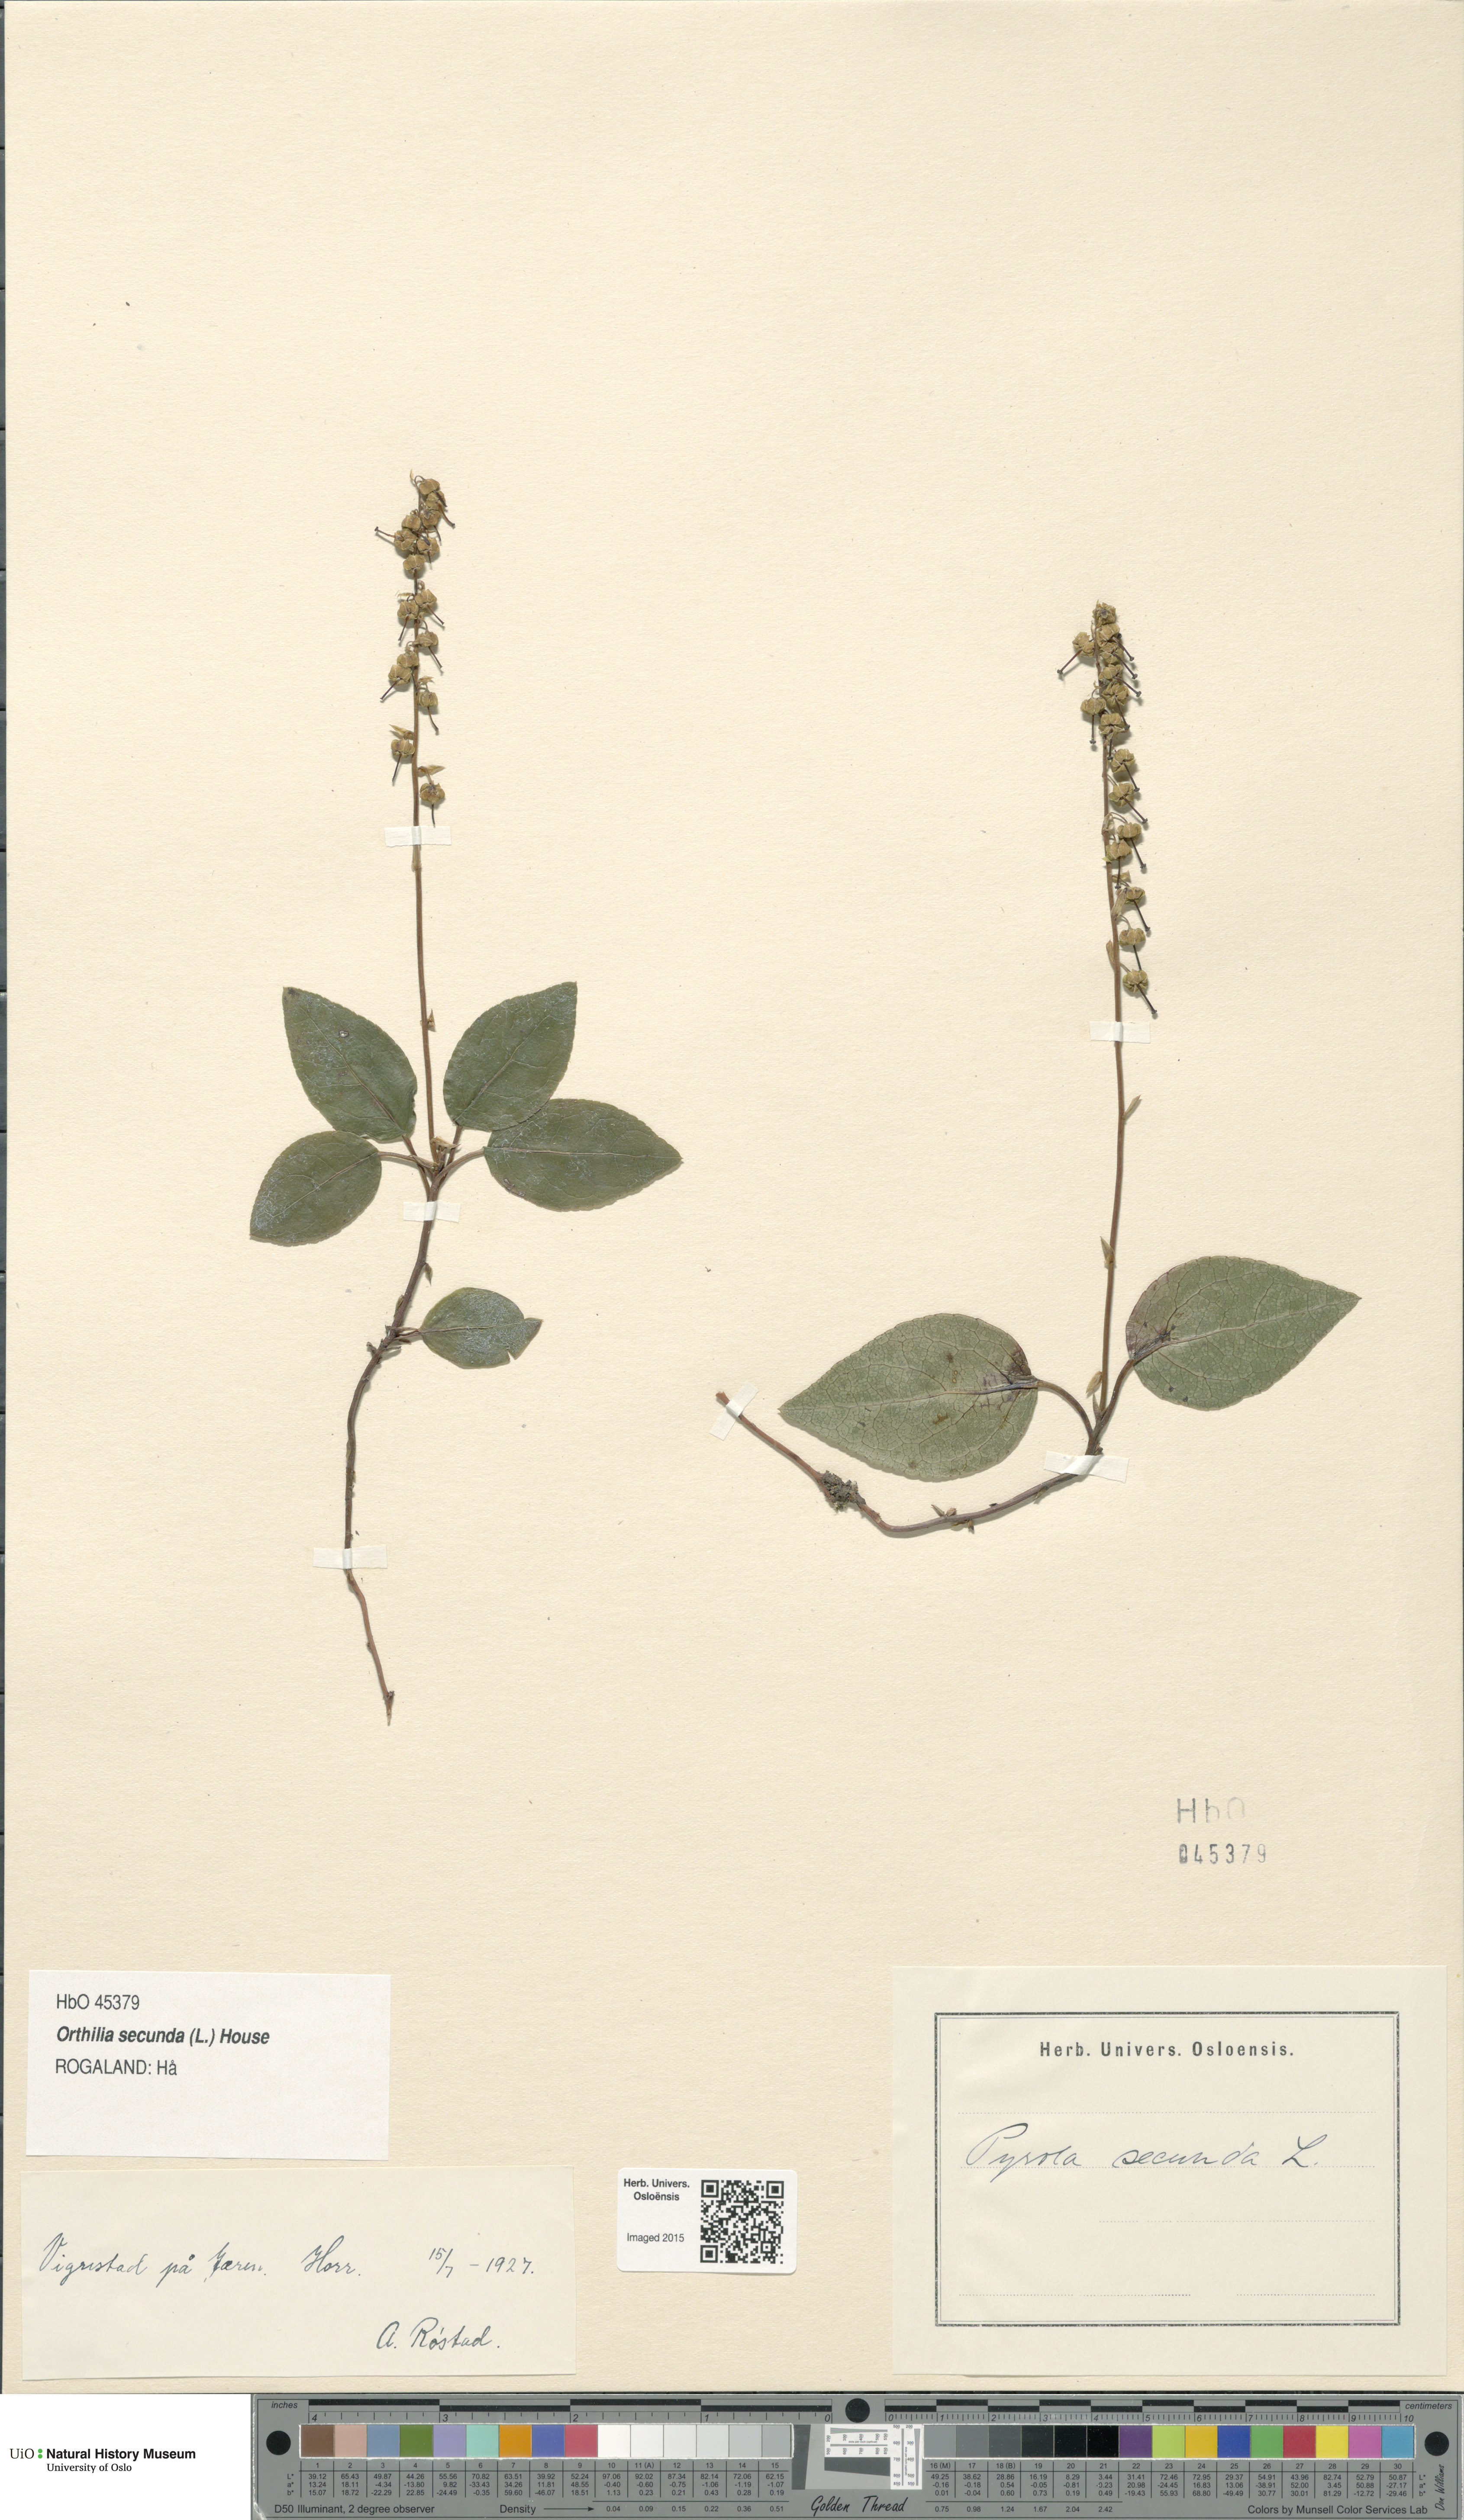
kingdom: Plantae
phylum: Tracheophyta
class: Magnoliopsida
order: Ericales
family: Ericaceae
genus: Orthilia
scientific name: Orthilia secunda
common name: One-sided orthilia
